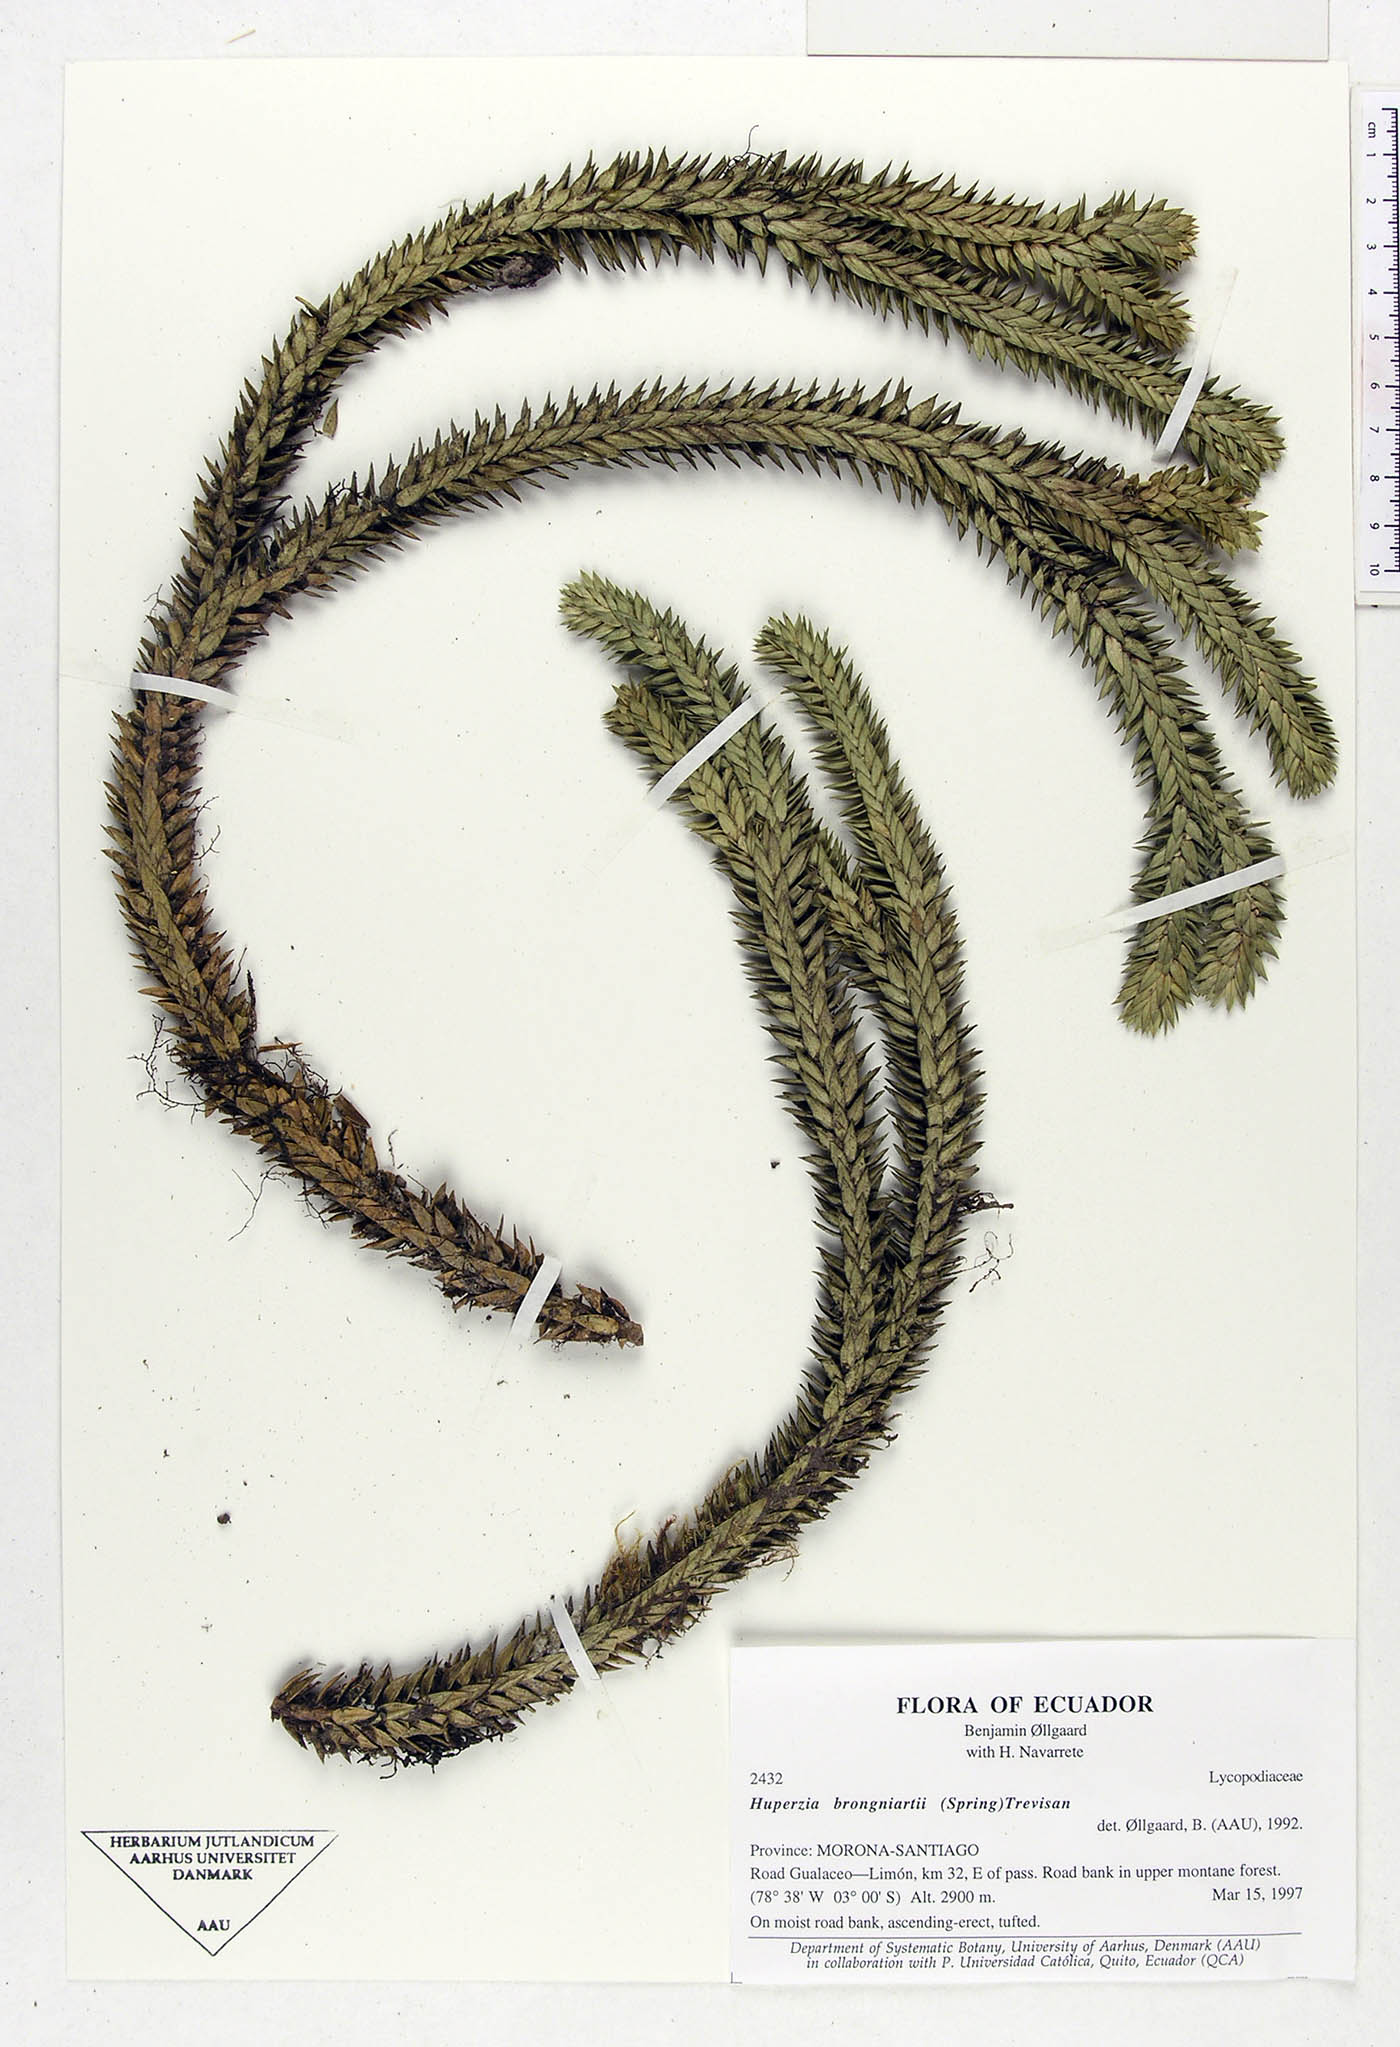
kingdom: Plantae
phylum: Tracheophyta
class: Lycopodiopsida
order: Lycopodiales
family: Lycopodiaceae
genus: Phlegmariurus
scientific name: Phlegmariurus brongniartii
